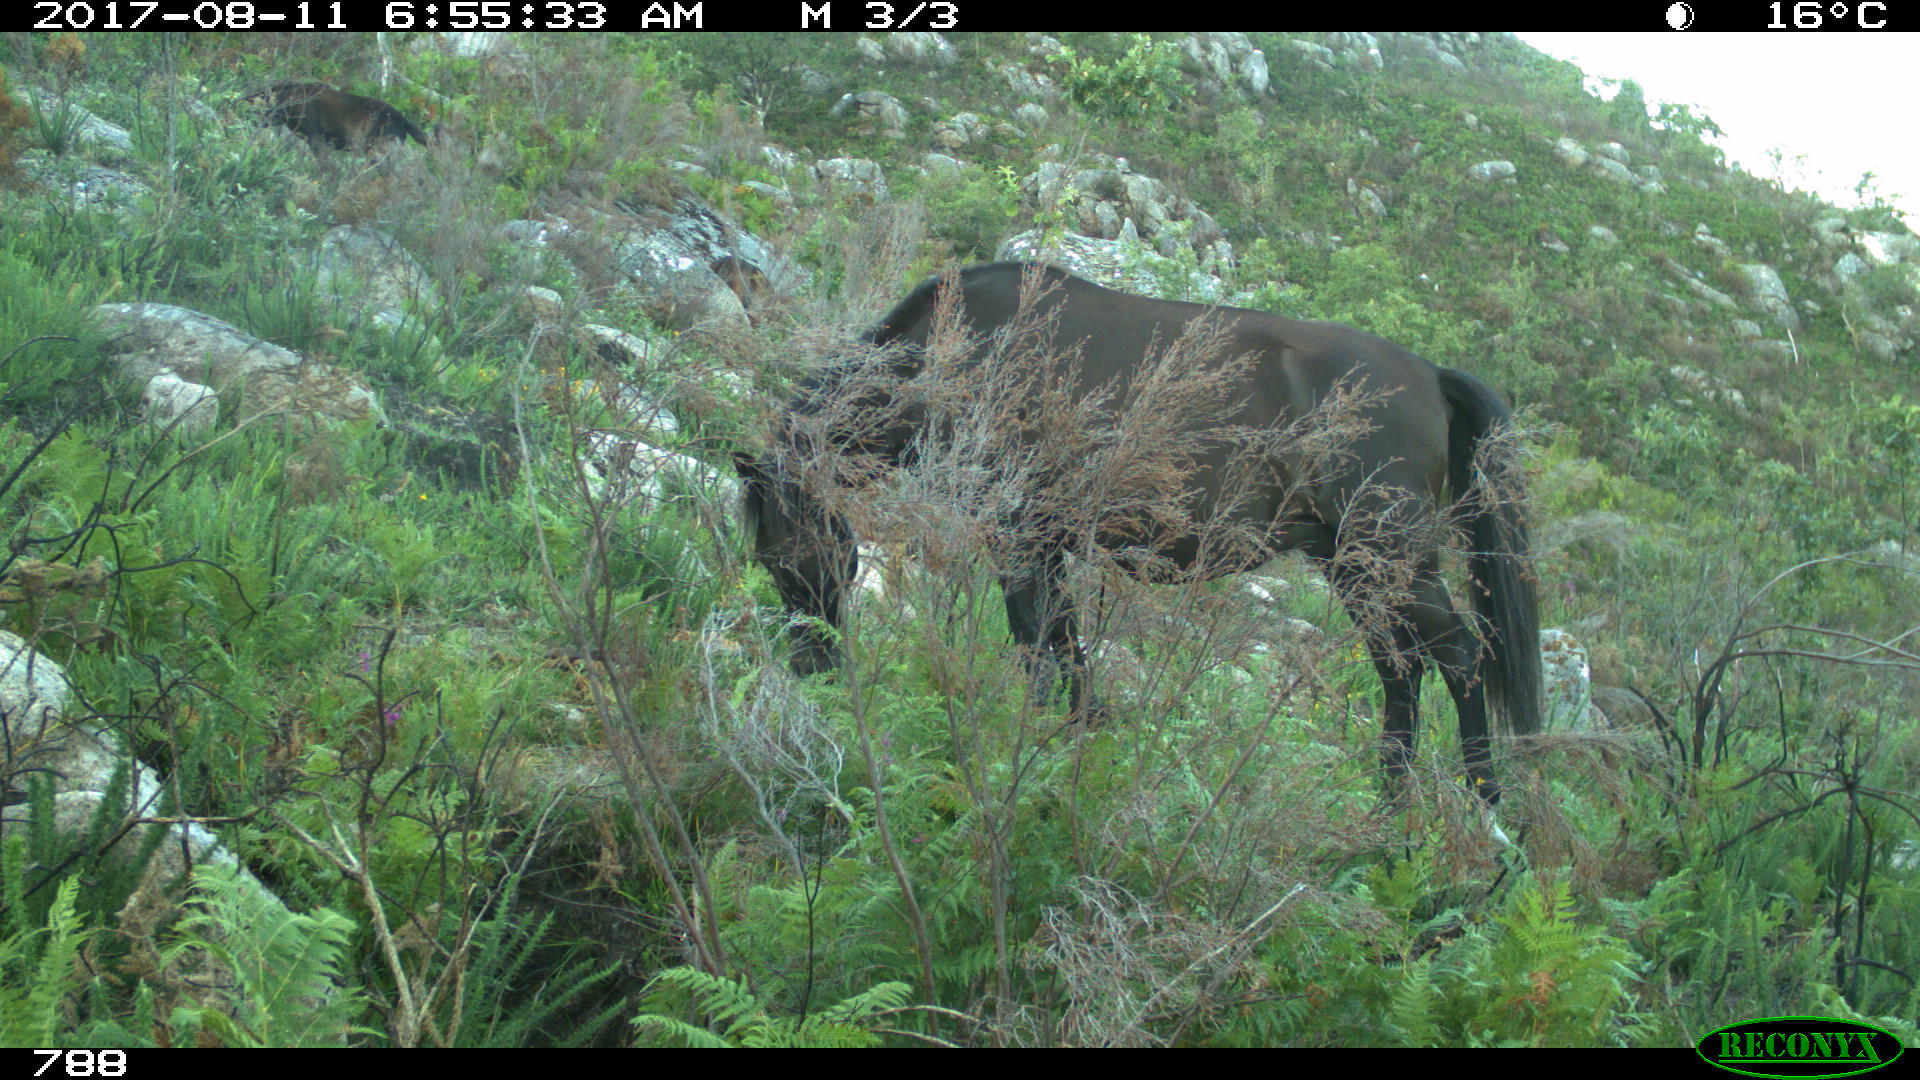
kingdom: Animalia
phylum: Chordata
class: Mammalia
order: Perissodactyla
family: Equidae
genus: Equus
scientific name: Equus caballus
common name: Horse
